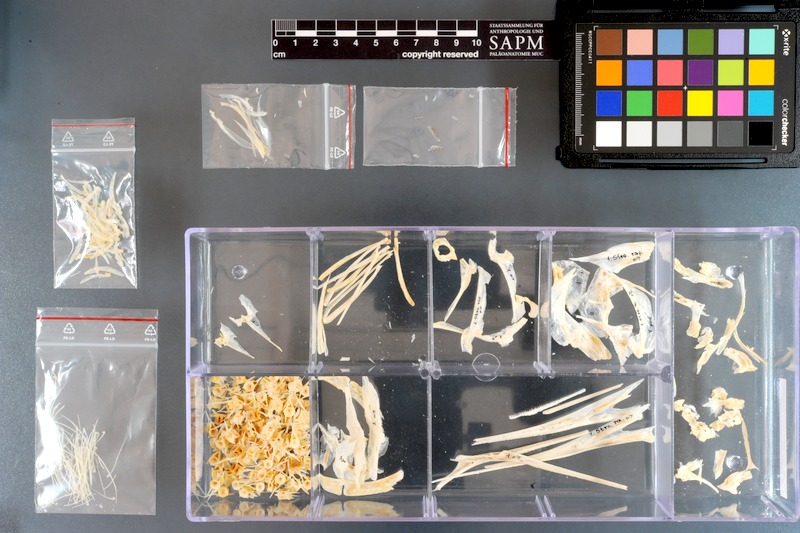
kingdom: Animalia
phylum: Chordata
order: Beloniformes
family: Belonidae
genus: Tylosurus
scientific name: Tylosurus crocodilus
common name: Houndfish
